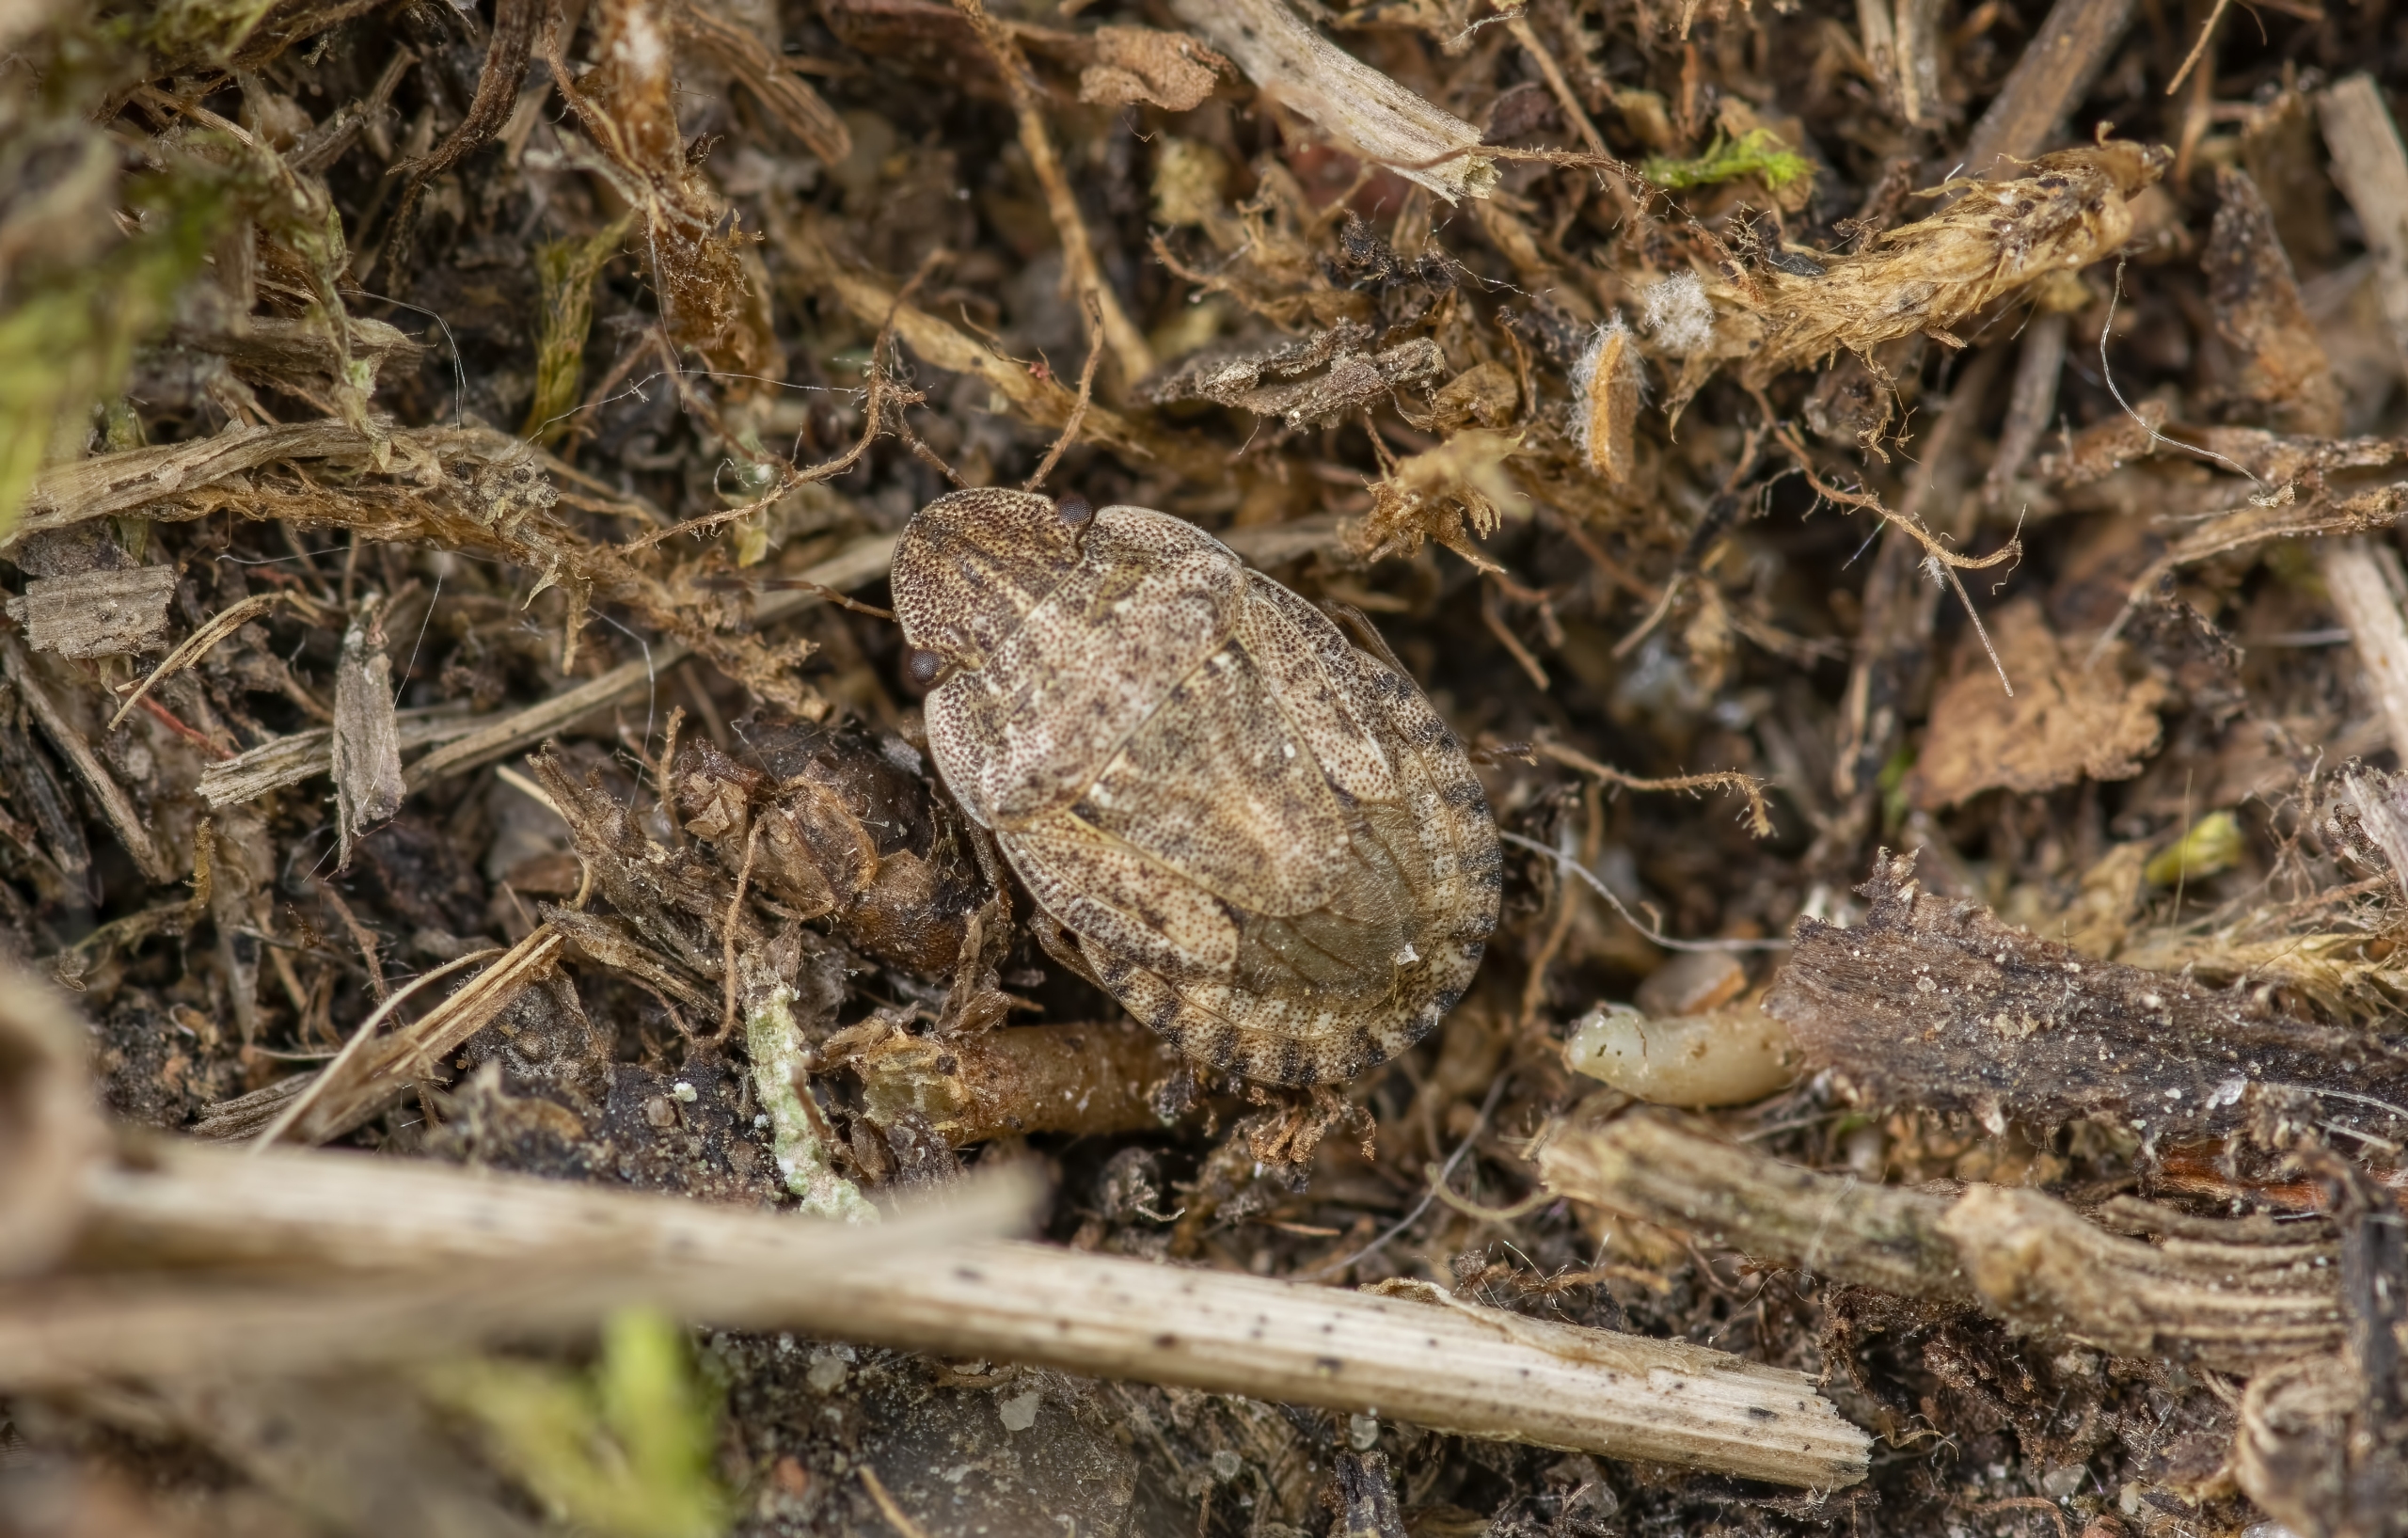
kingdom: Animalia
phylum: Arthropoda
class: Insecta
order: Hemiptera
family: Pentatomidae
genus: Sciocoris
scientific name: Sciocoris cursitans
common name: Lille kranstæge
